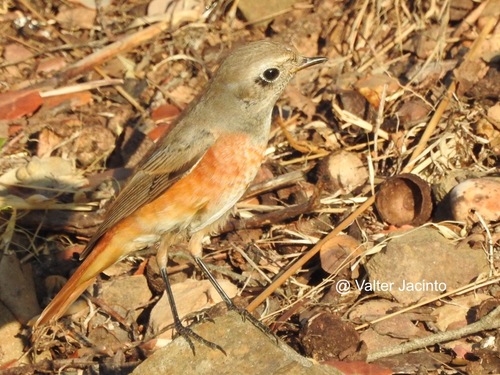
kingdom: Animalia
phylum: Chordata
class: Aves
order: Passeriformes
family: Muscicapidae
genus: Phoenicurus
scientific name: Phoenicurus phoenicurus
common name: Common redstart
